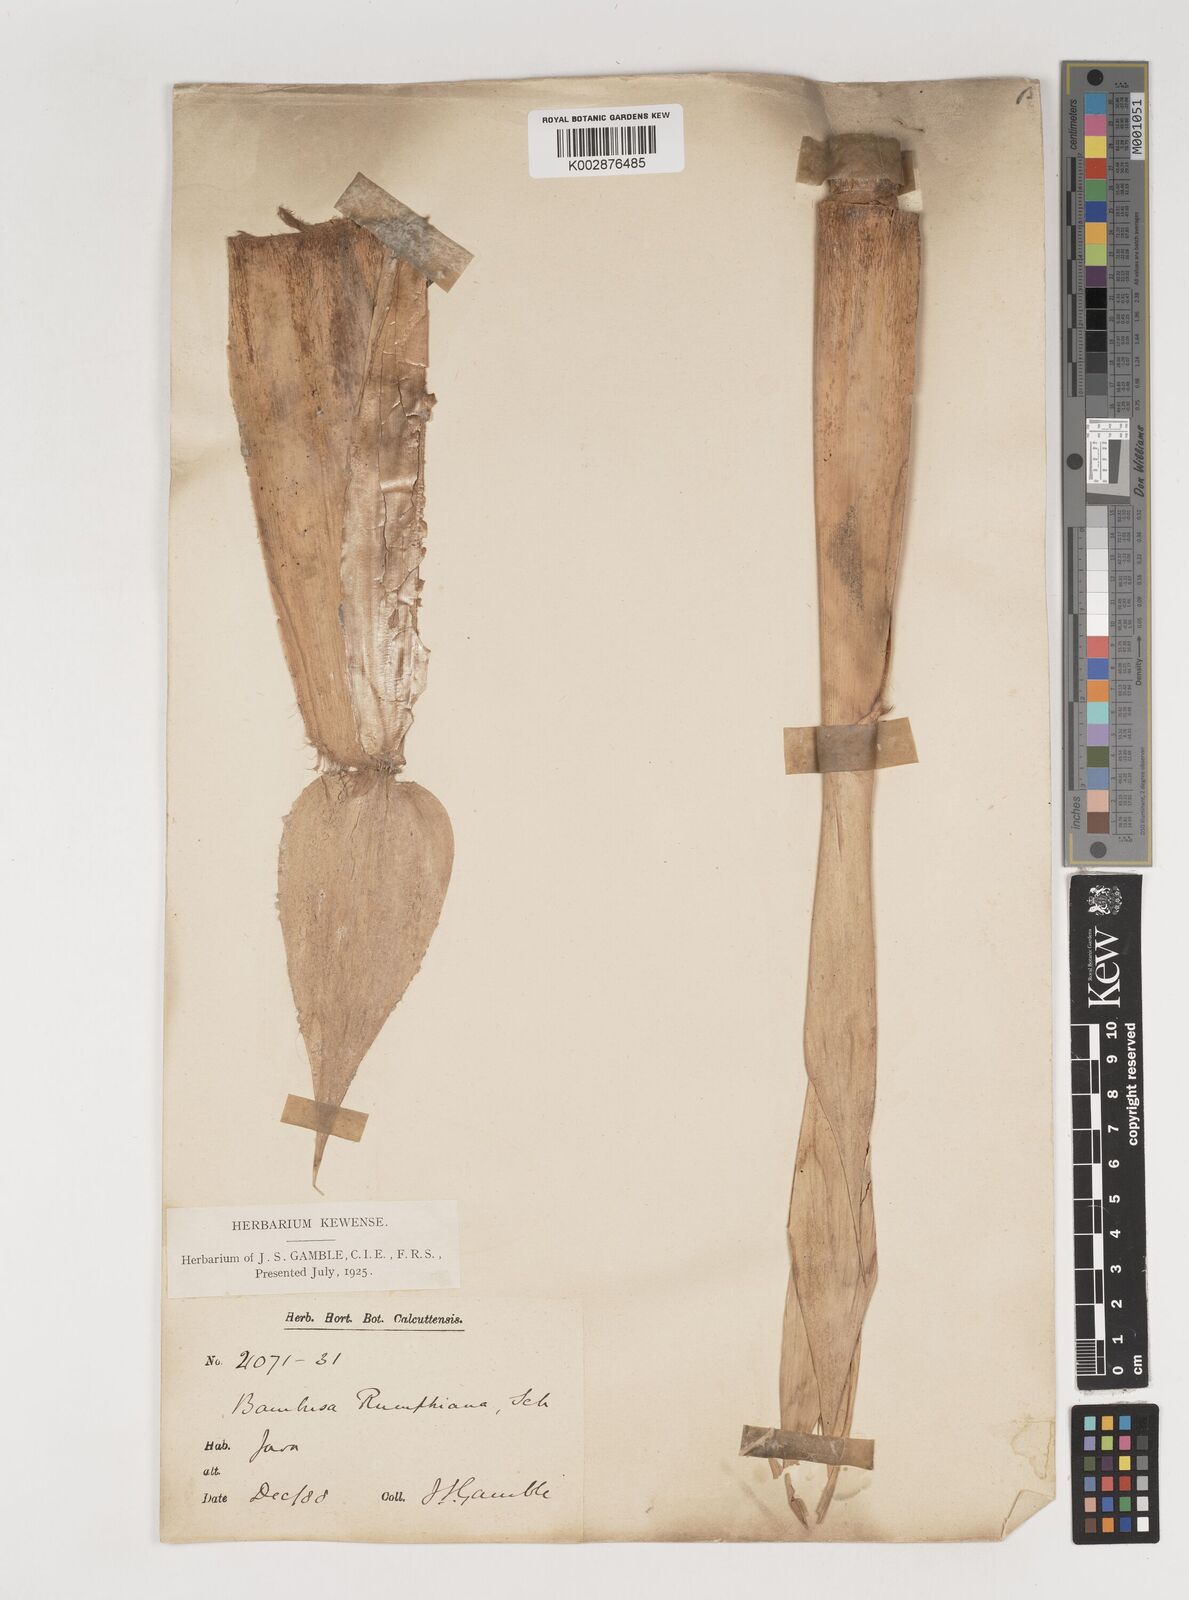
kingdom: Plantae
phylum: Tracheophyta
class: Liliopsida
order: Poales
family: Poaceae
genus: Neololeba
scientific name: Neololeba amahussana
